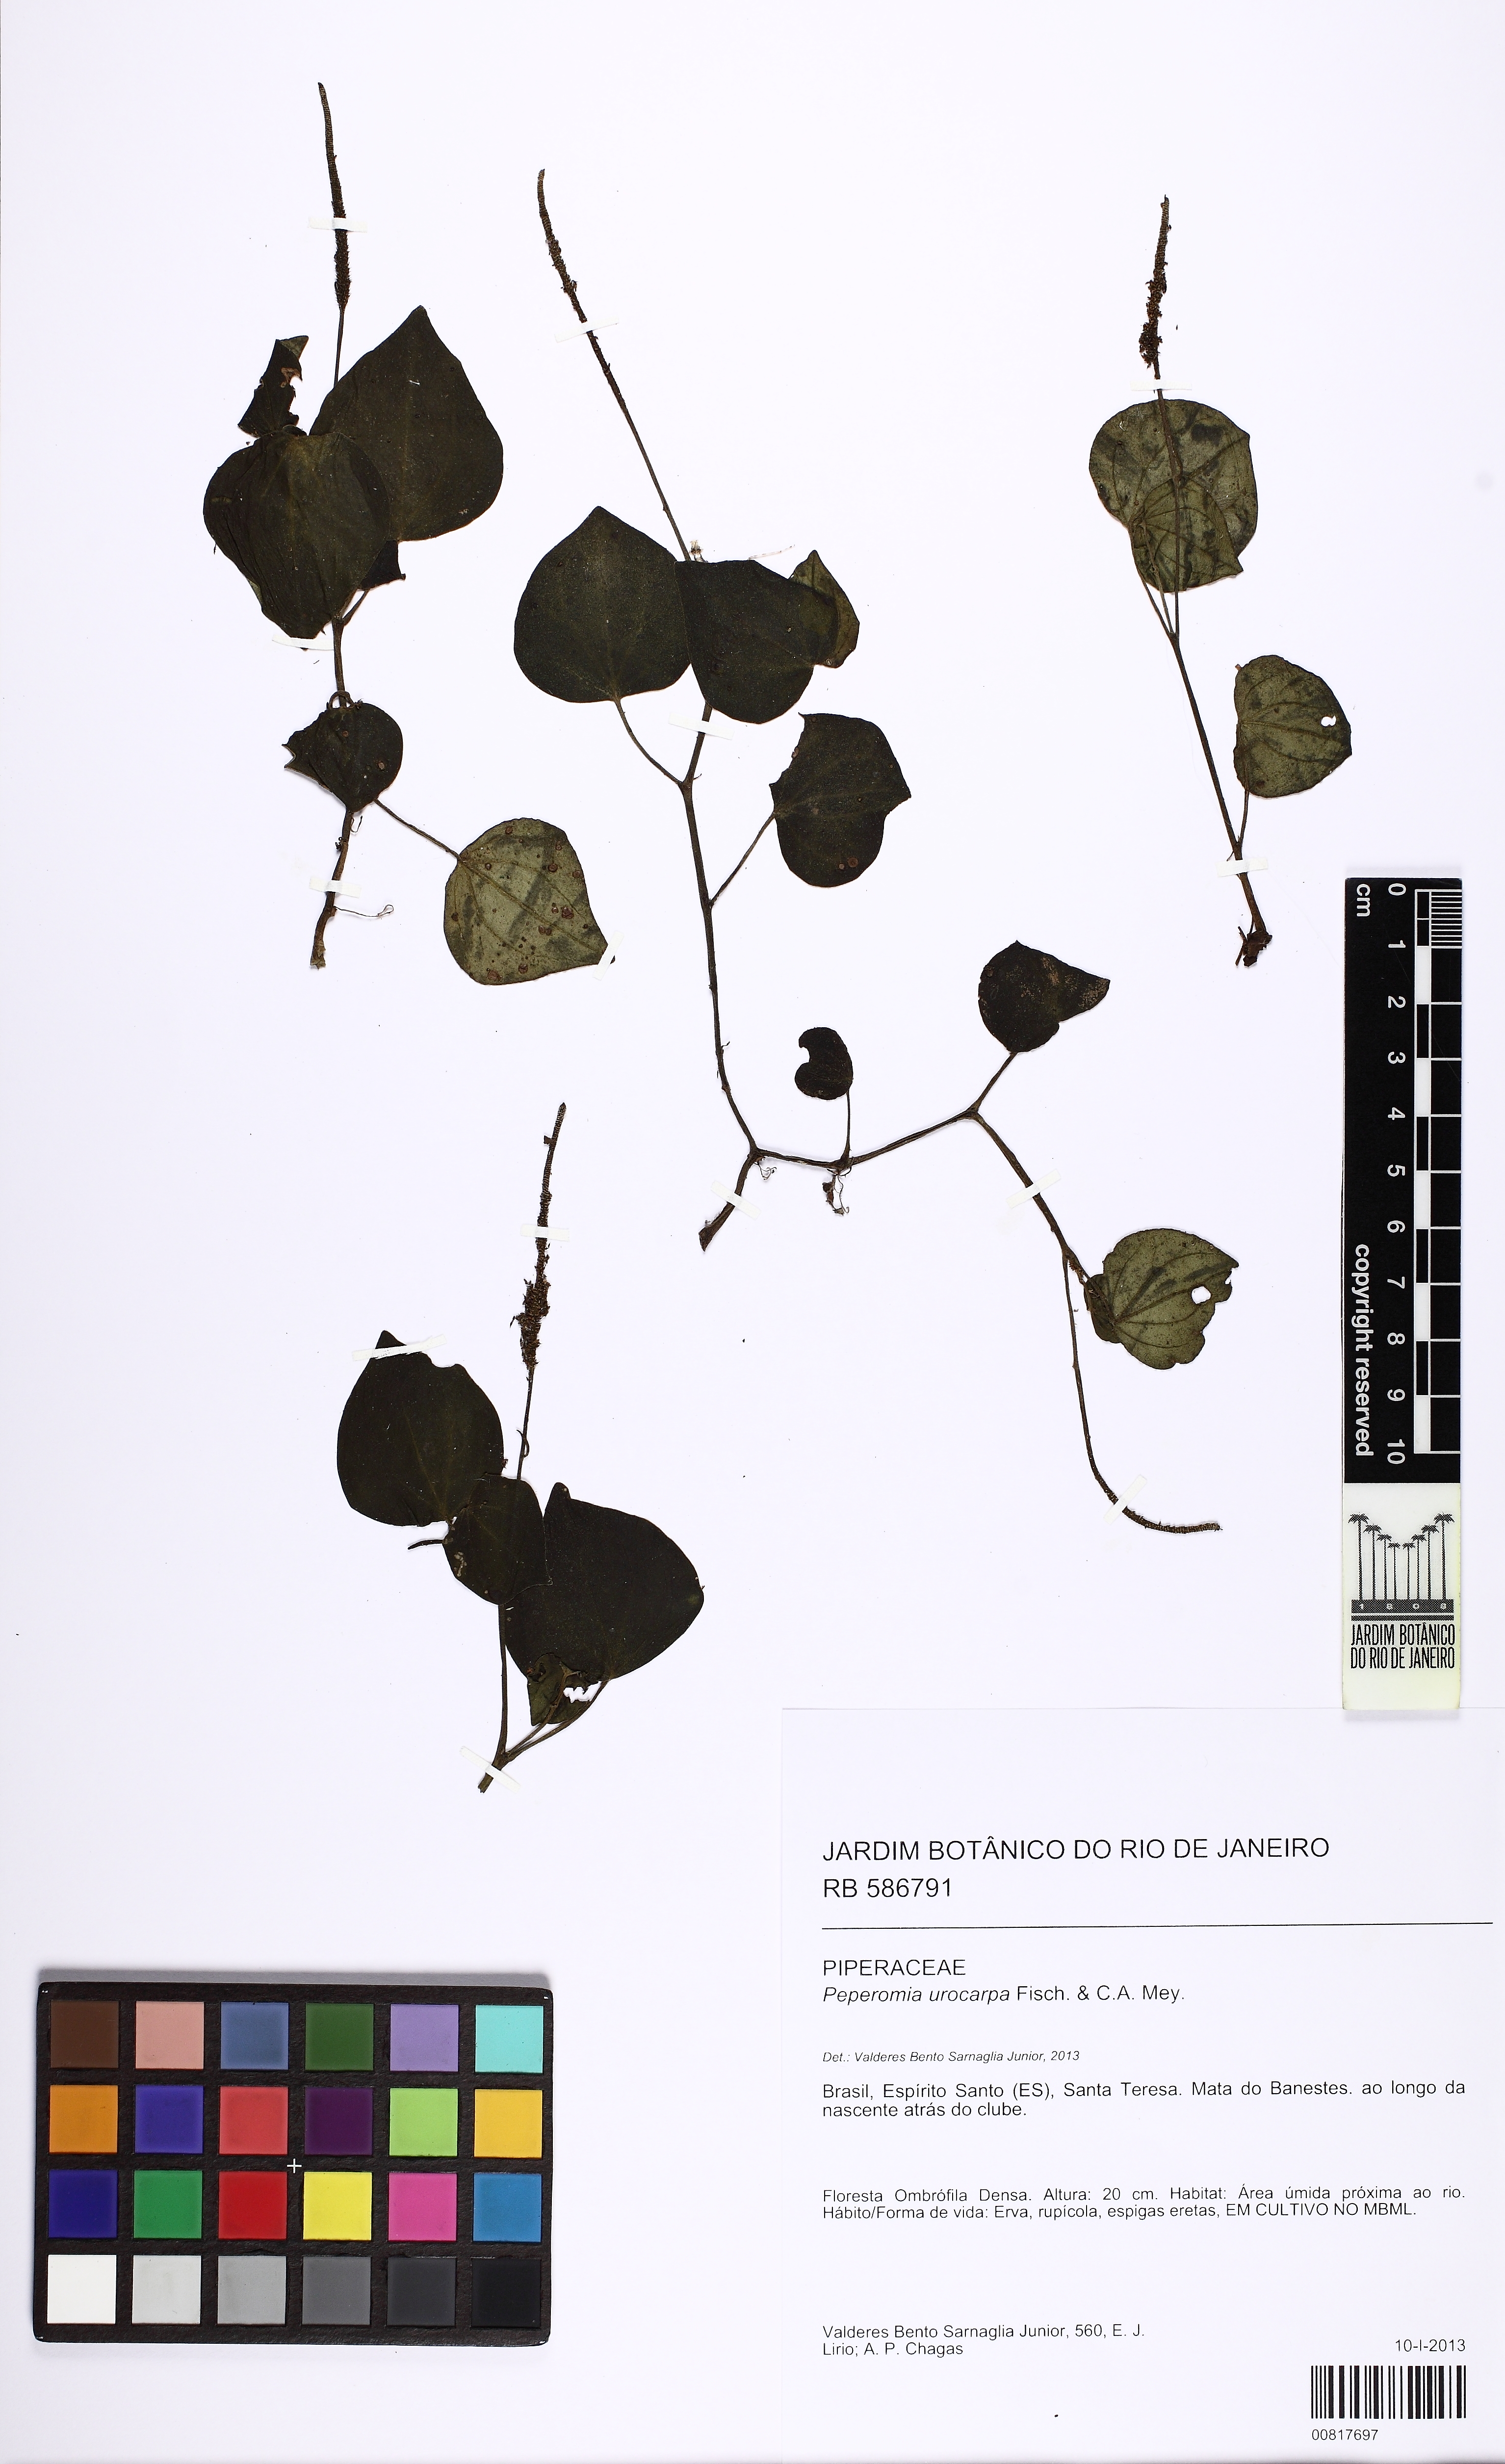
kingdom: Plantae
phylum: Tracheophyta
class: Magnoliopsida
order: Piperales
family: Piperaceae
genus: Peperomia
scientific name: Peperomia urocarpa
